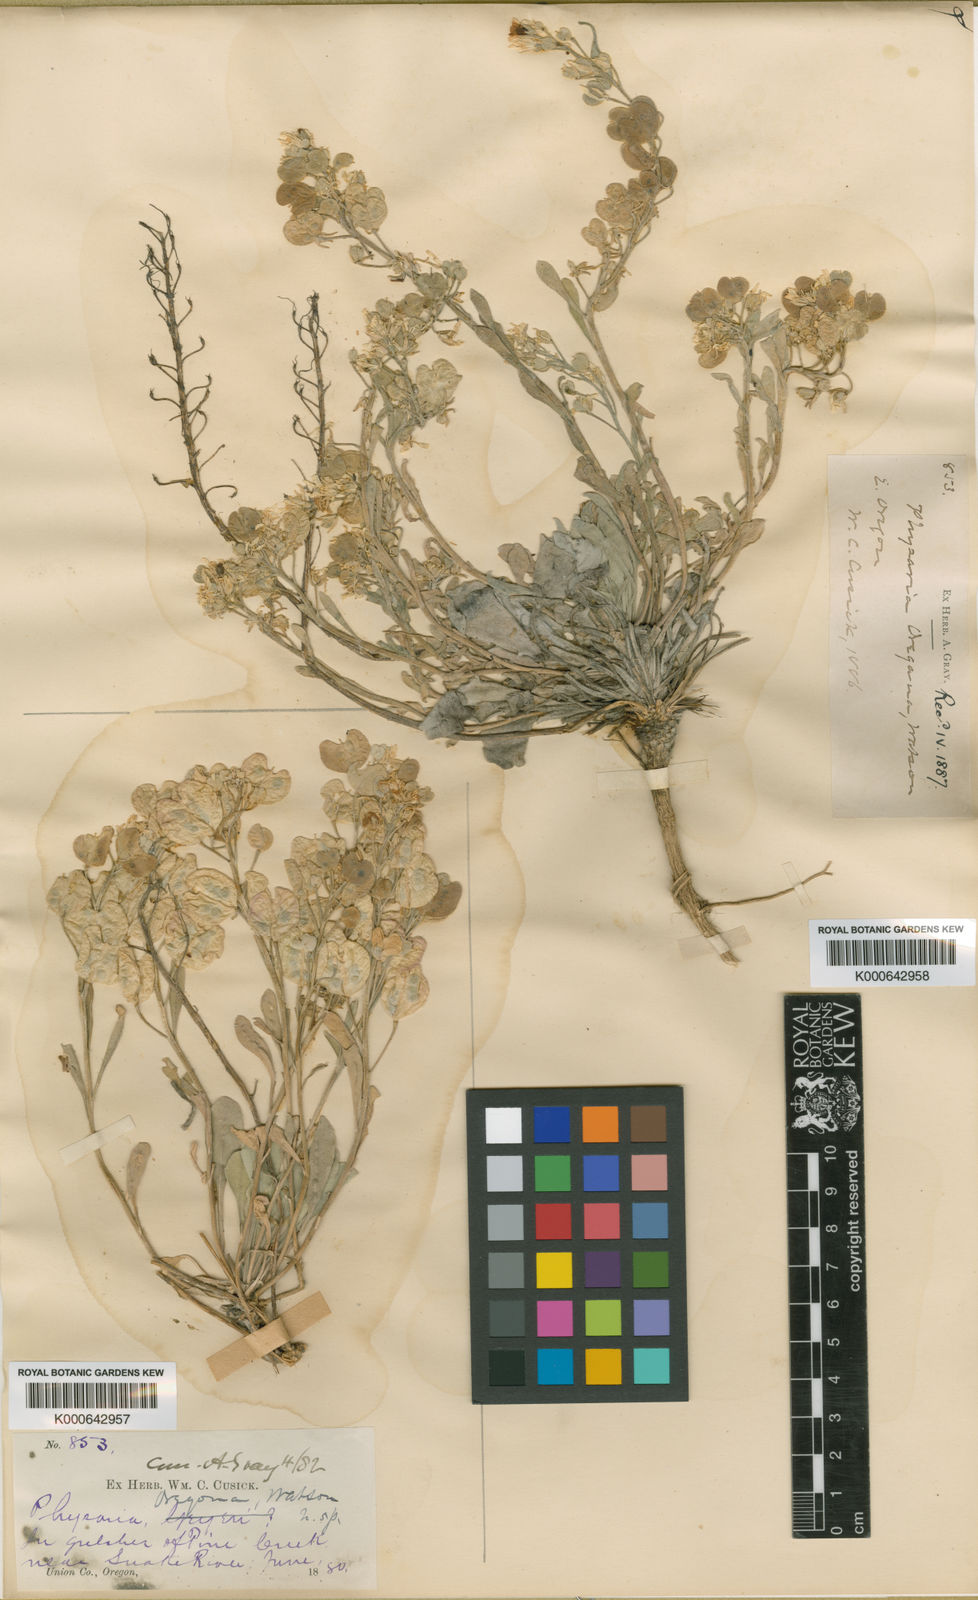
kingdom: Plantae
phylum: Tracheophyta
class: Magnoliopsida
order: Brassicales
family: Brassicaceae
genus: Physaria
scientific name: Physaria oregona
